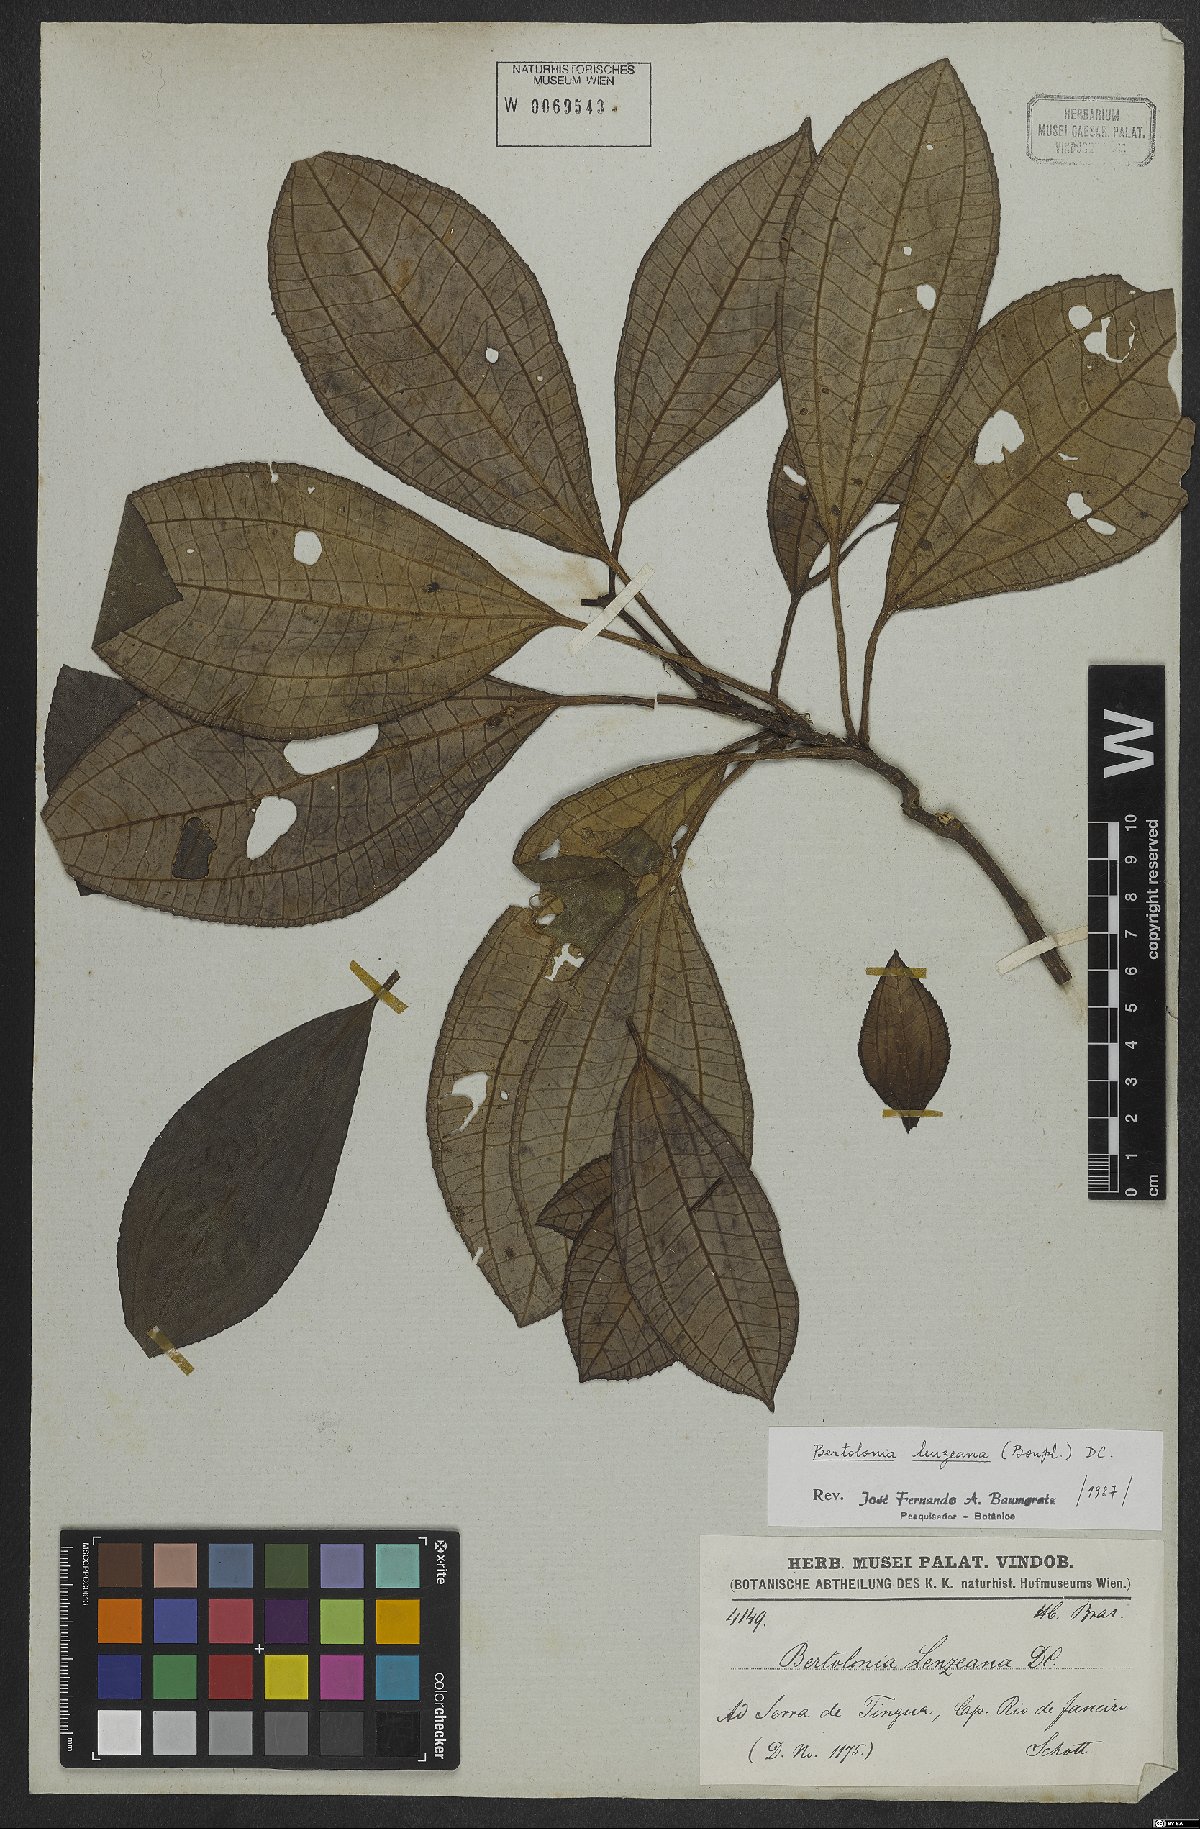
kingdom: Plantae
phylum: Tracheophyta
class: Magnoliopsida
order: Myrtales
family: Melastomataceae
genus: Bertolonia
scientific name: Bertolonia leuzeana
